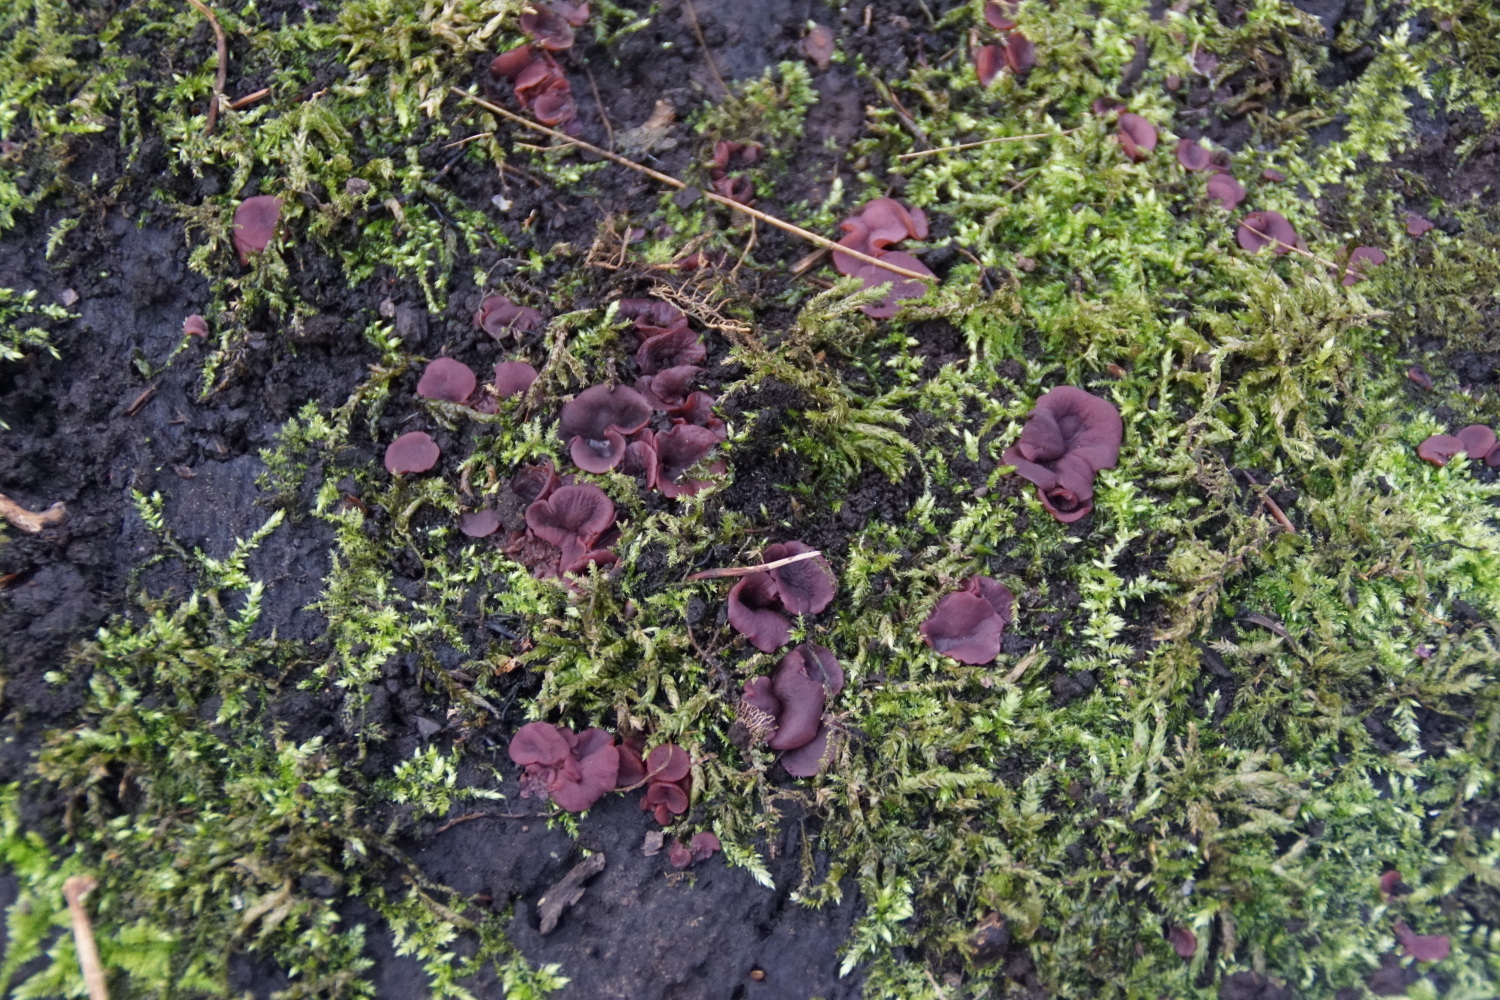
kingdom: Fungi
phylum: Ascomycota
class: Leotiomycetes
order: Helotiales
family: Gelatinodiscaceae
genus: Ascocoryne
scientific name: Ascocoryne cylichnium
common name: stor sejskive
